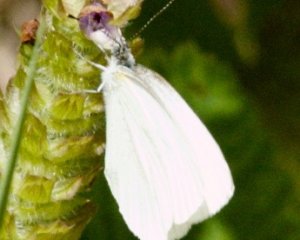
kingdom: Animalia
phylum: Arthropoda
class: Insecta
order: Lepidoptera
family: Pieridae
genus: Pieris
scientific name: Pieris oleracea
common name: Mustard White
